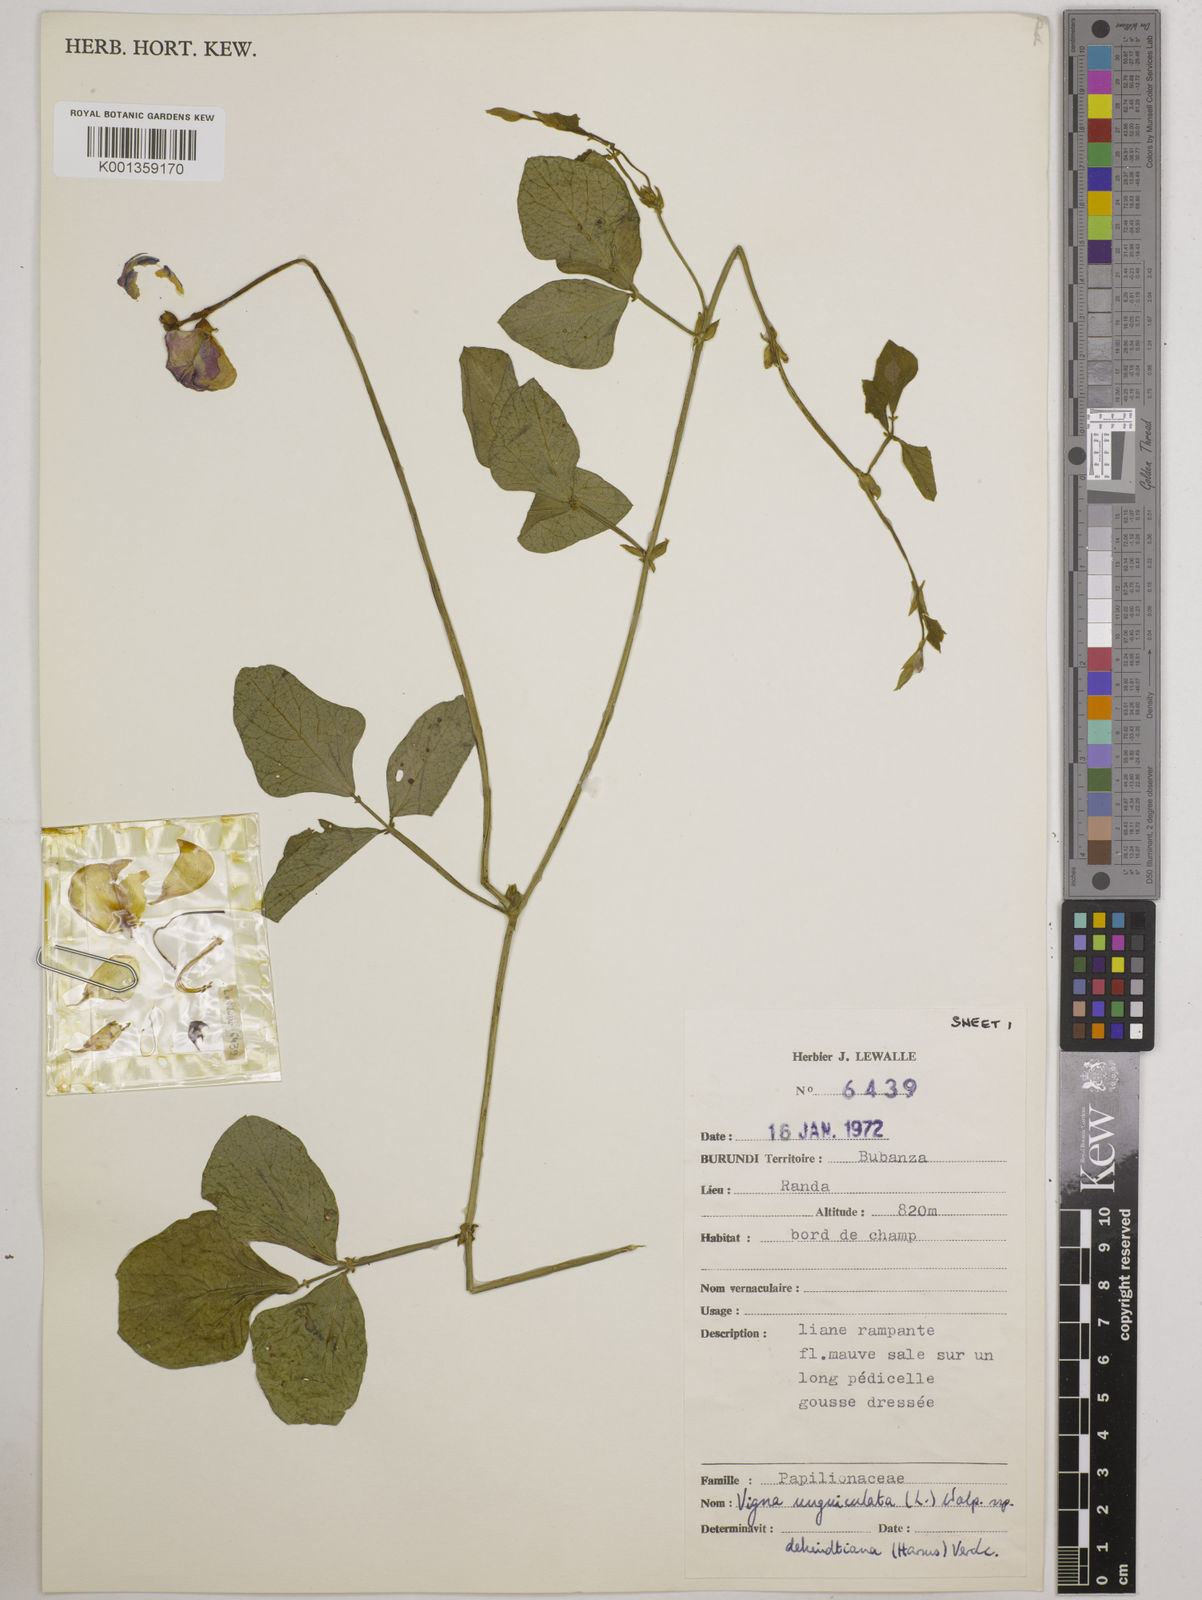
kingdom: Plantae
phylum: Tracheophyta
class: Magnoliopsida
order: Fabales
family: Fabaceae
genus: Vigna
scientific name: Vigna
